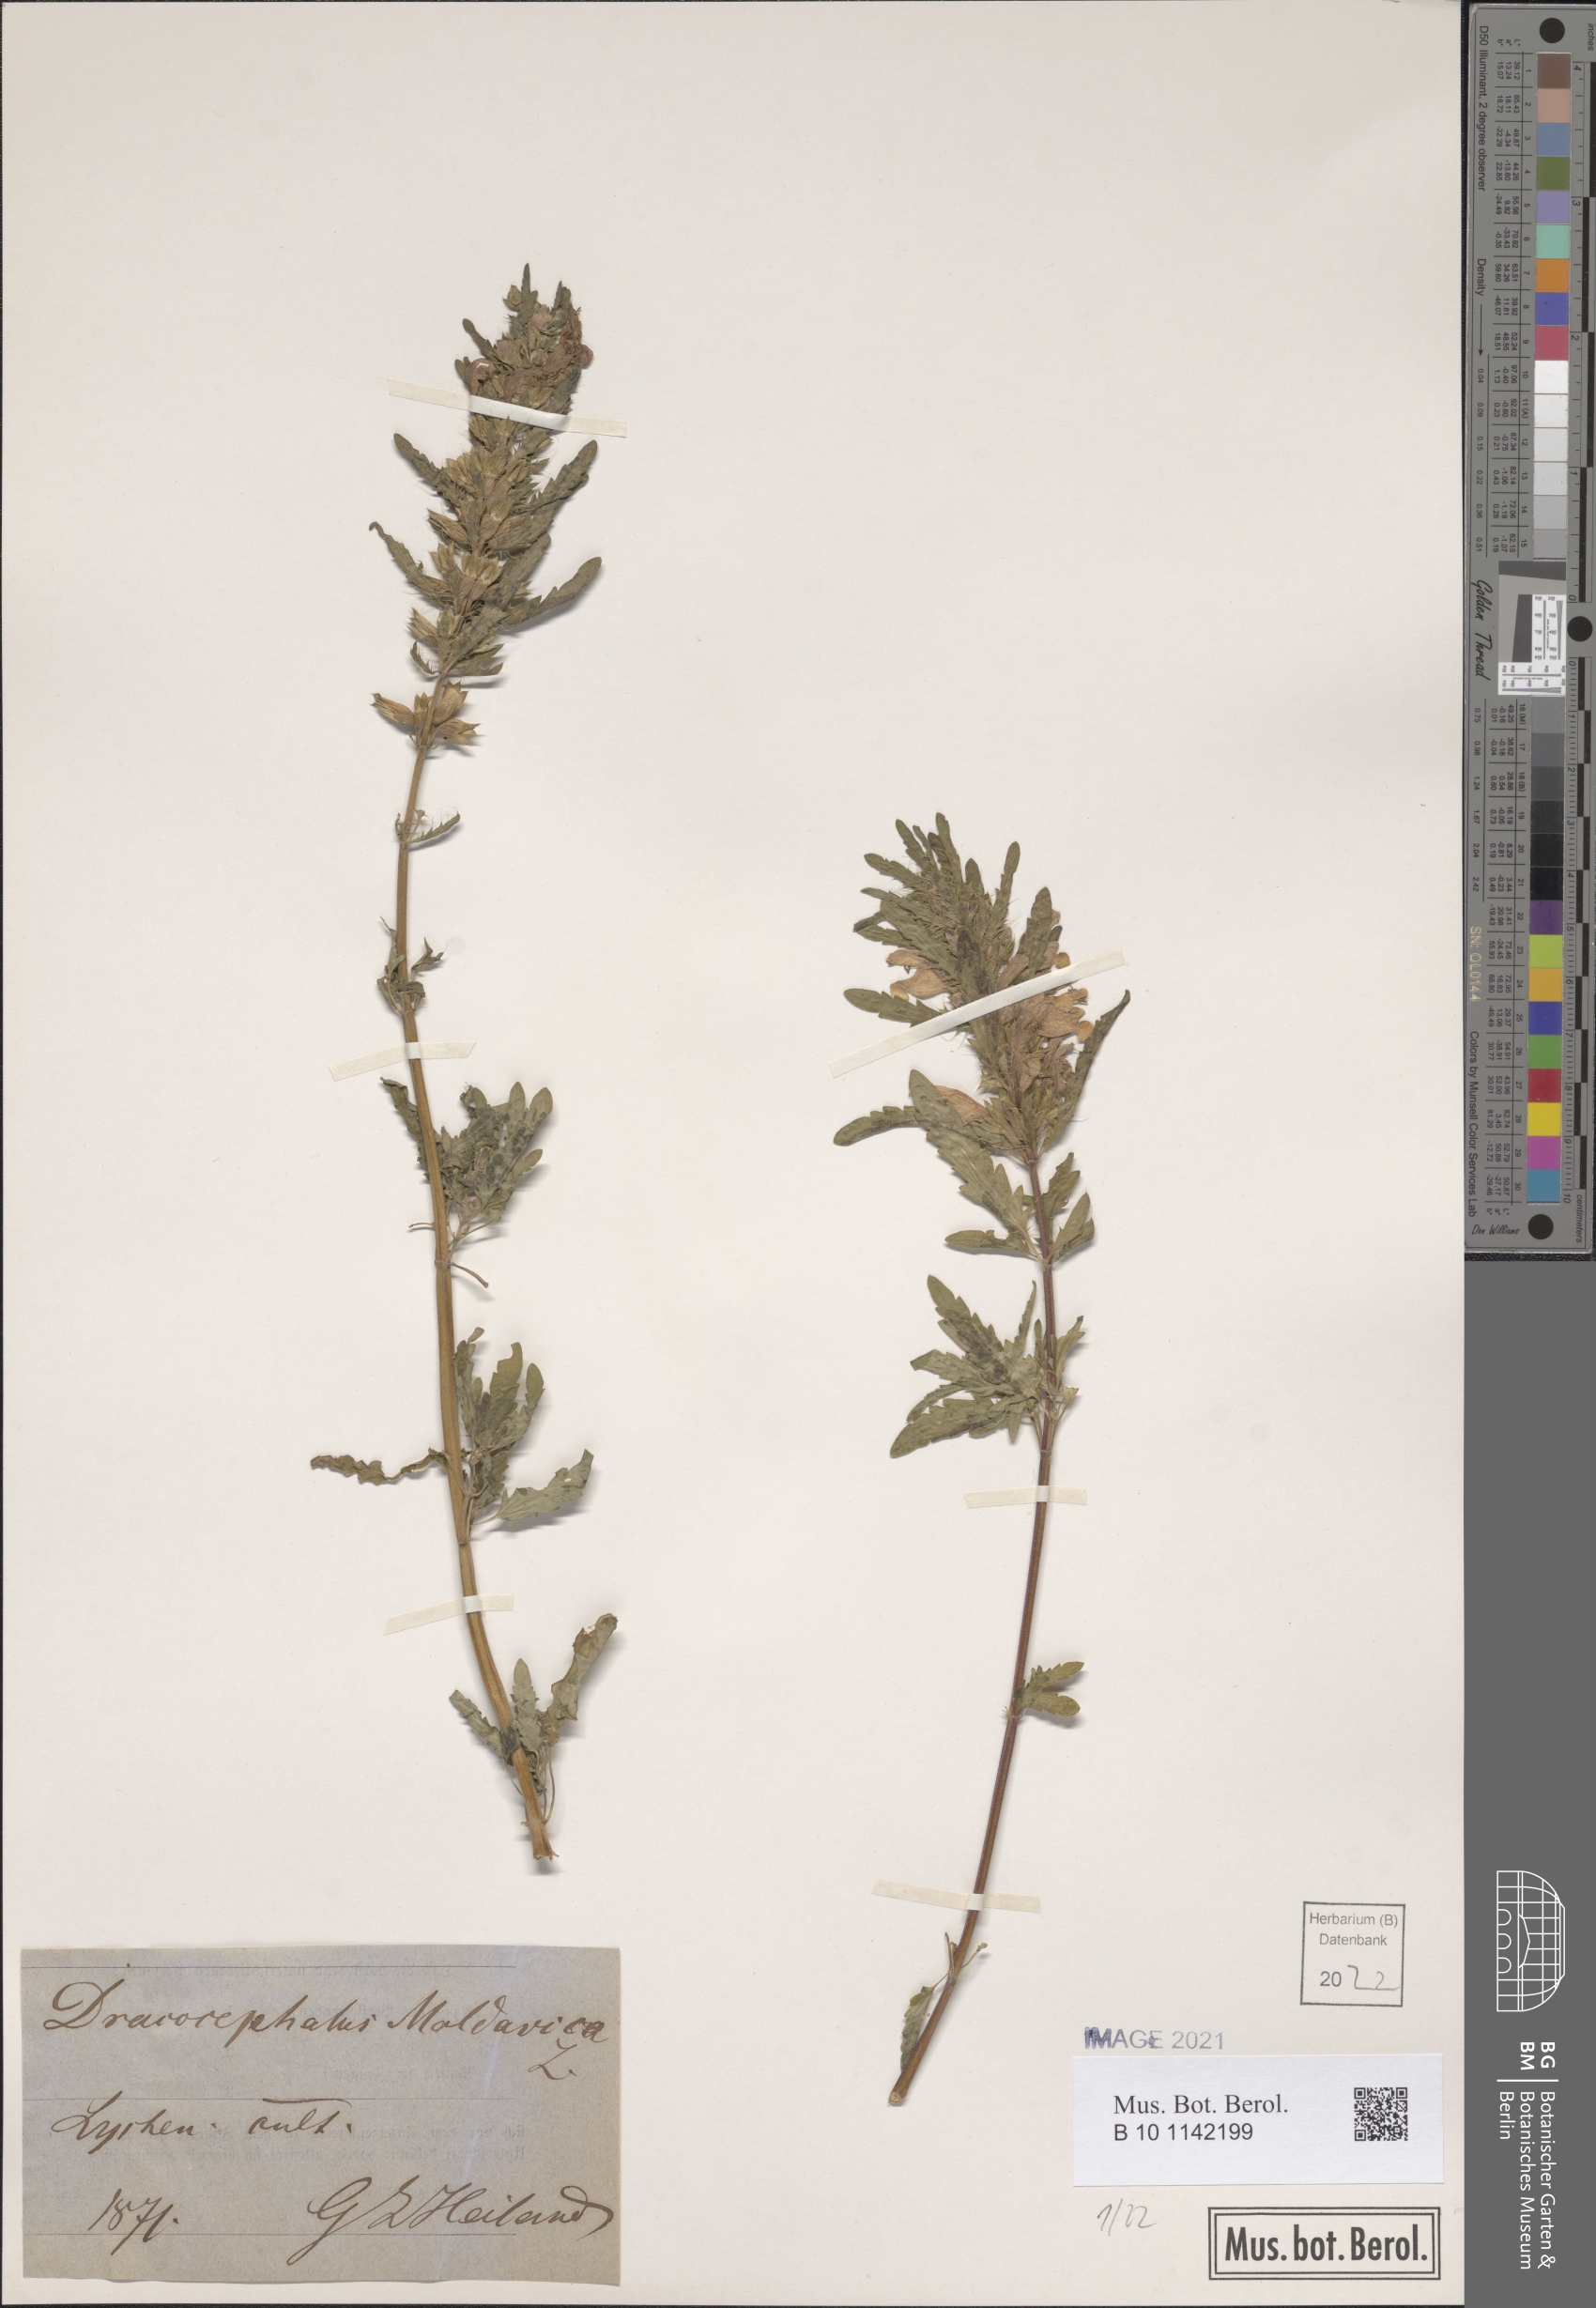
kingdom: Plantae
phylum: Tracheophyta
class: Magnoliopsida
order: Lamiales
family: Lamiaceae
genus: Dracocephalum
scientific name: Dracocephalum moldavica
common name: Moldavian dragonhead
